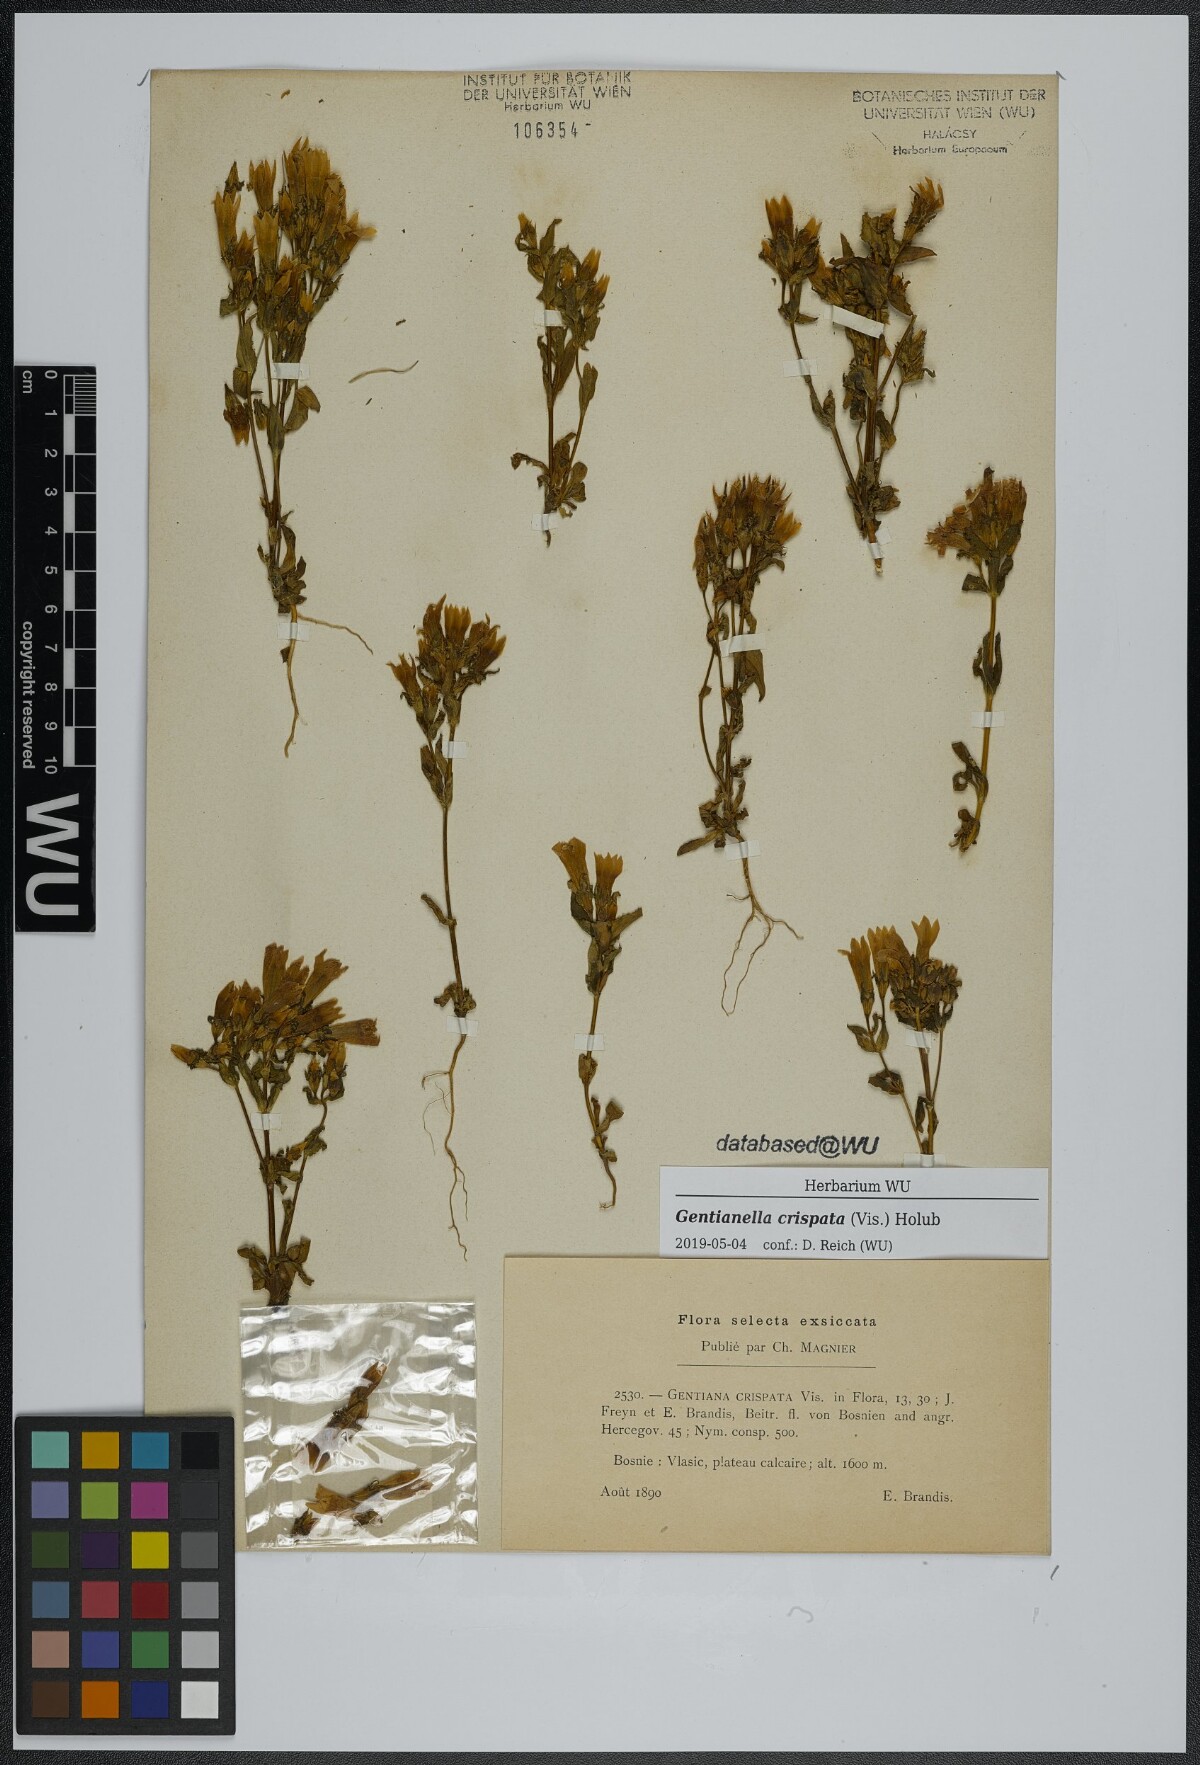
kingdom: Plantae
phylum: Tracheophyta
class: Magnoliopsida
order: Gentianales
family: Gentianaceae
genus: Gentianella
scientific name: Gentianella crispata
